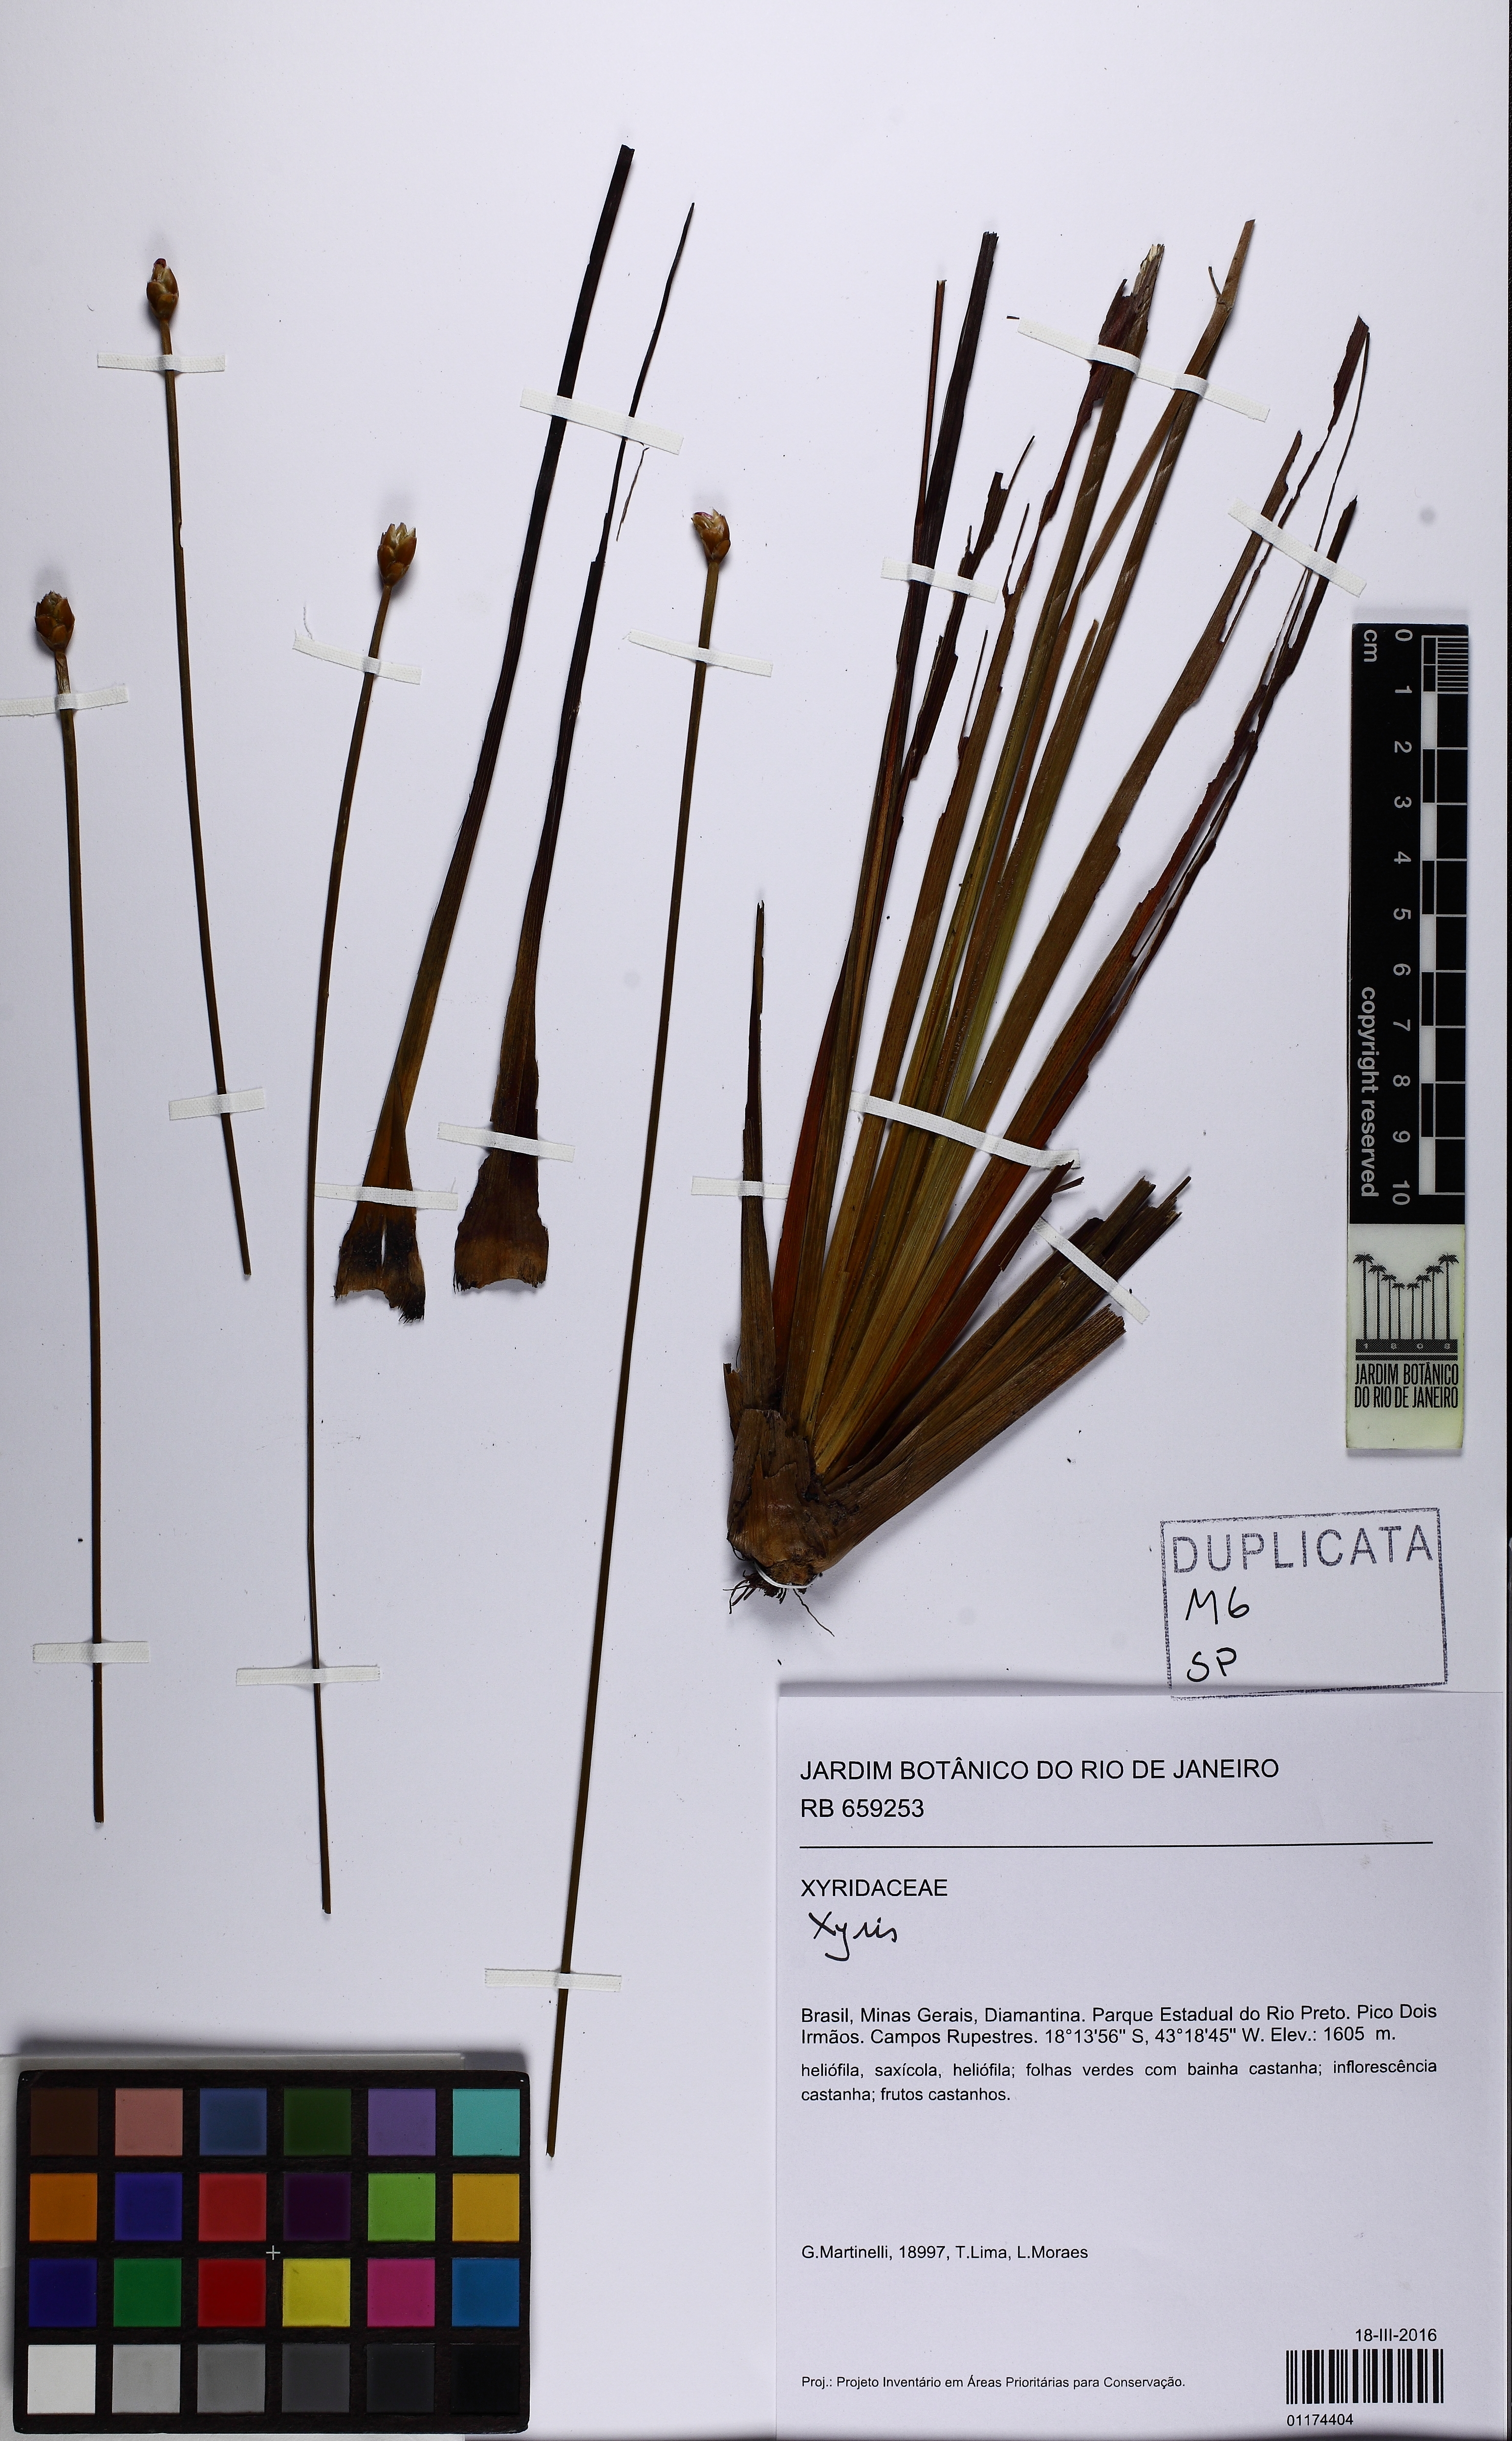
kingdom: Plantae
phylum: Tracheophyta
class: Liliopsida
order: Poales
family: Xyridaceae
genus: Xyris
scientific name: Xyris
